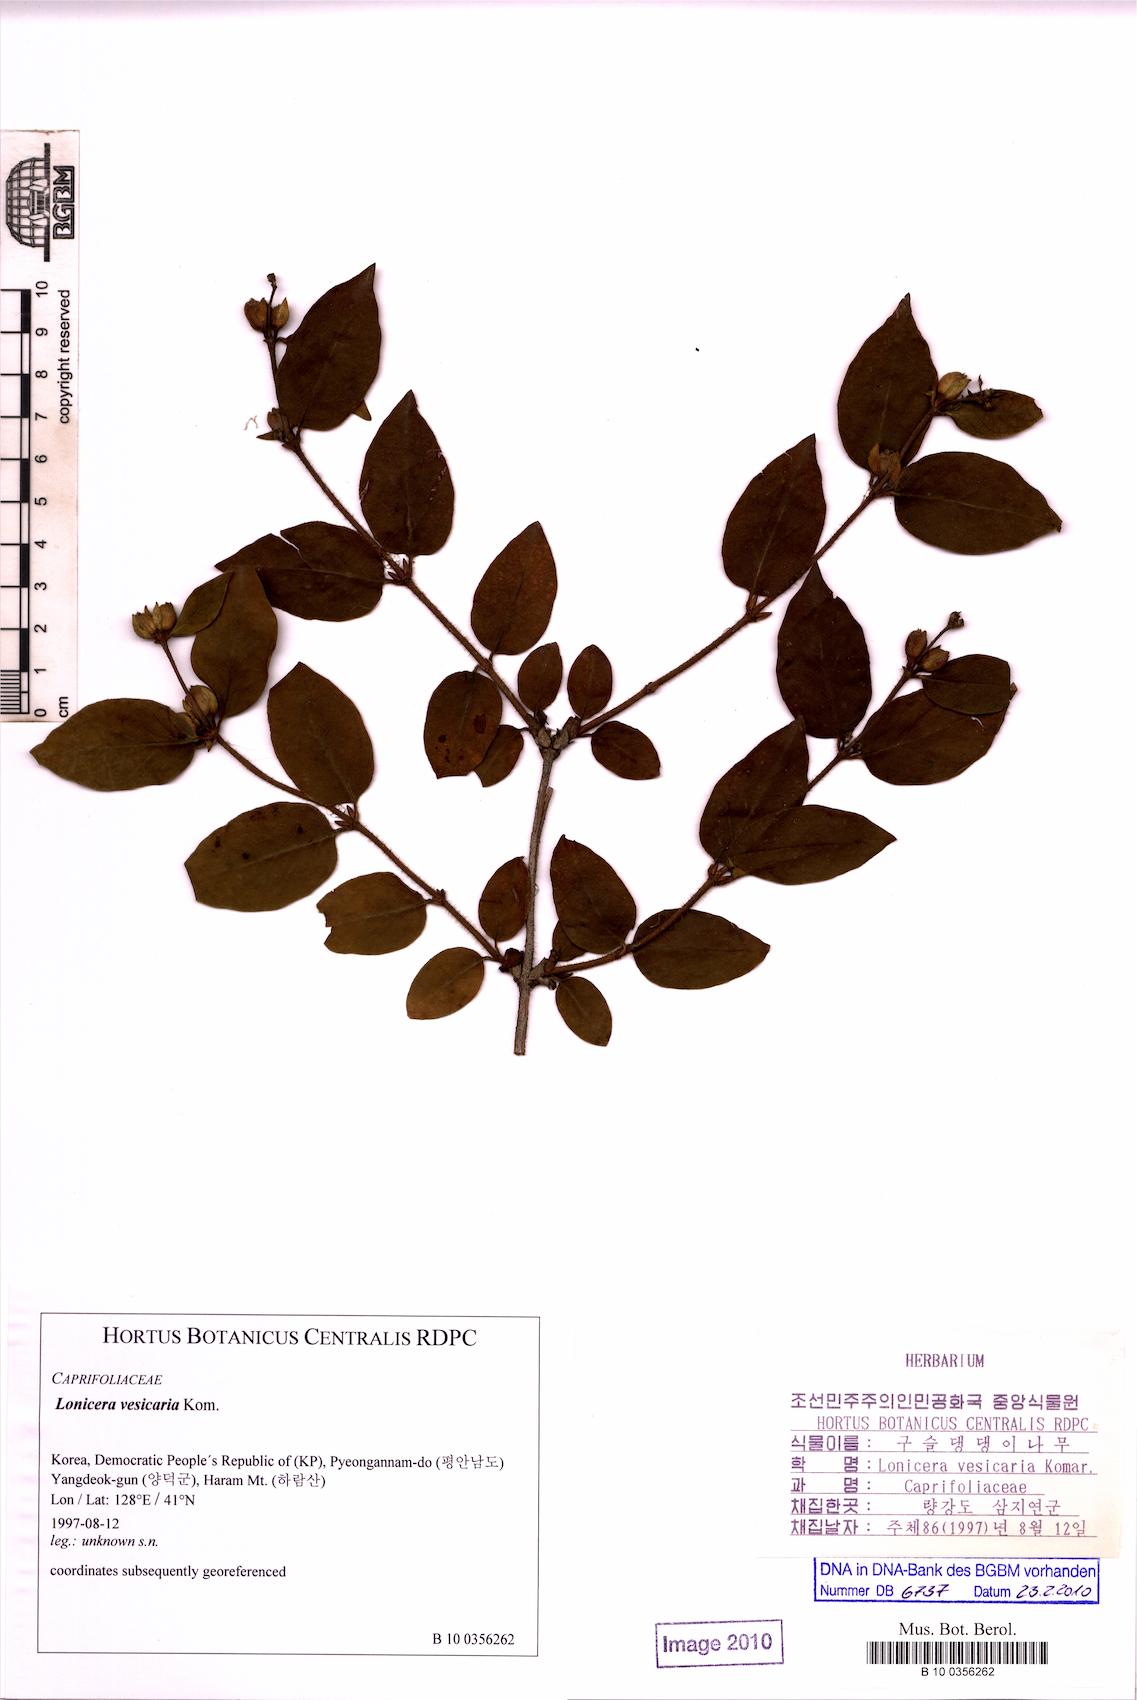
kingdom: Plantae
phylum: Tracheophyta
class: Magnoliopsida
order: Dipsacales
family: Caprifoliaceae
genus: Lonicera
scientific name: Lonicera ferdinandi
